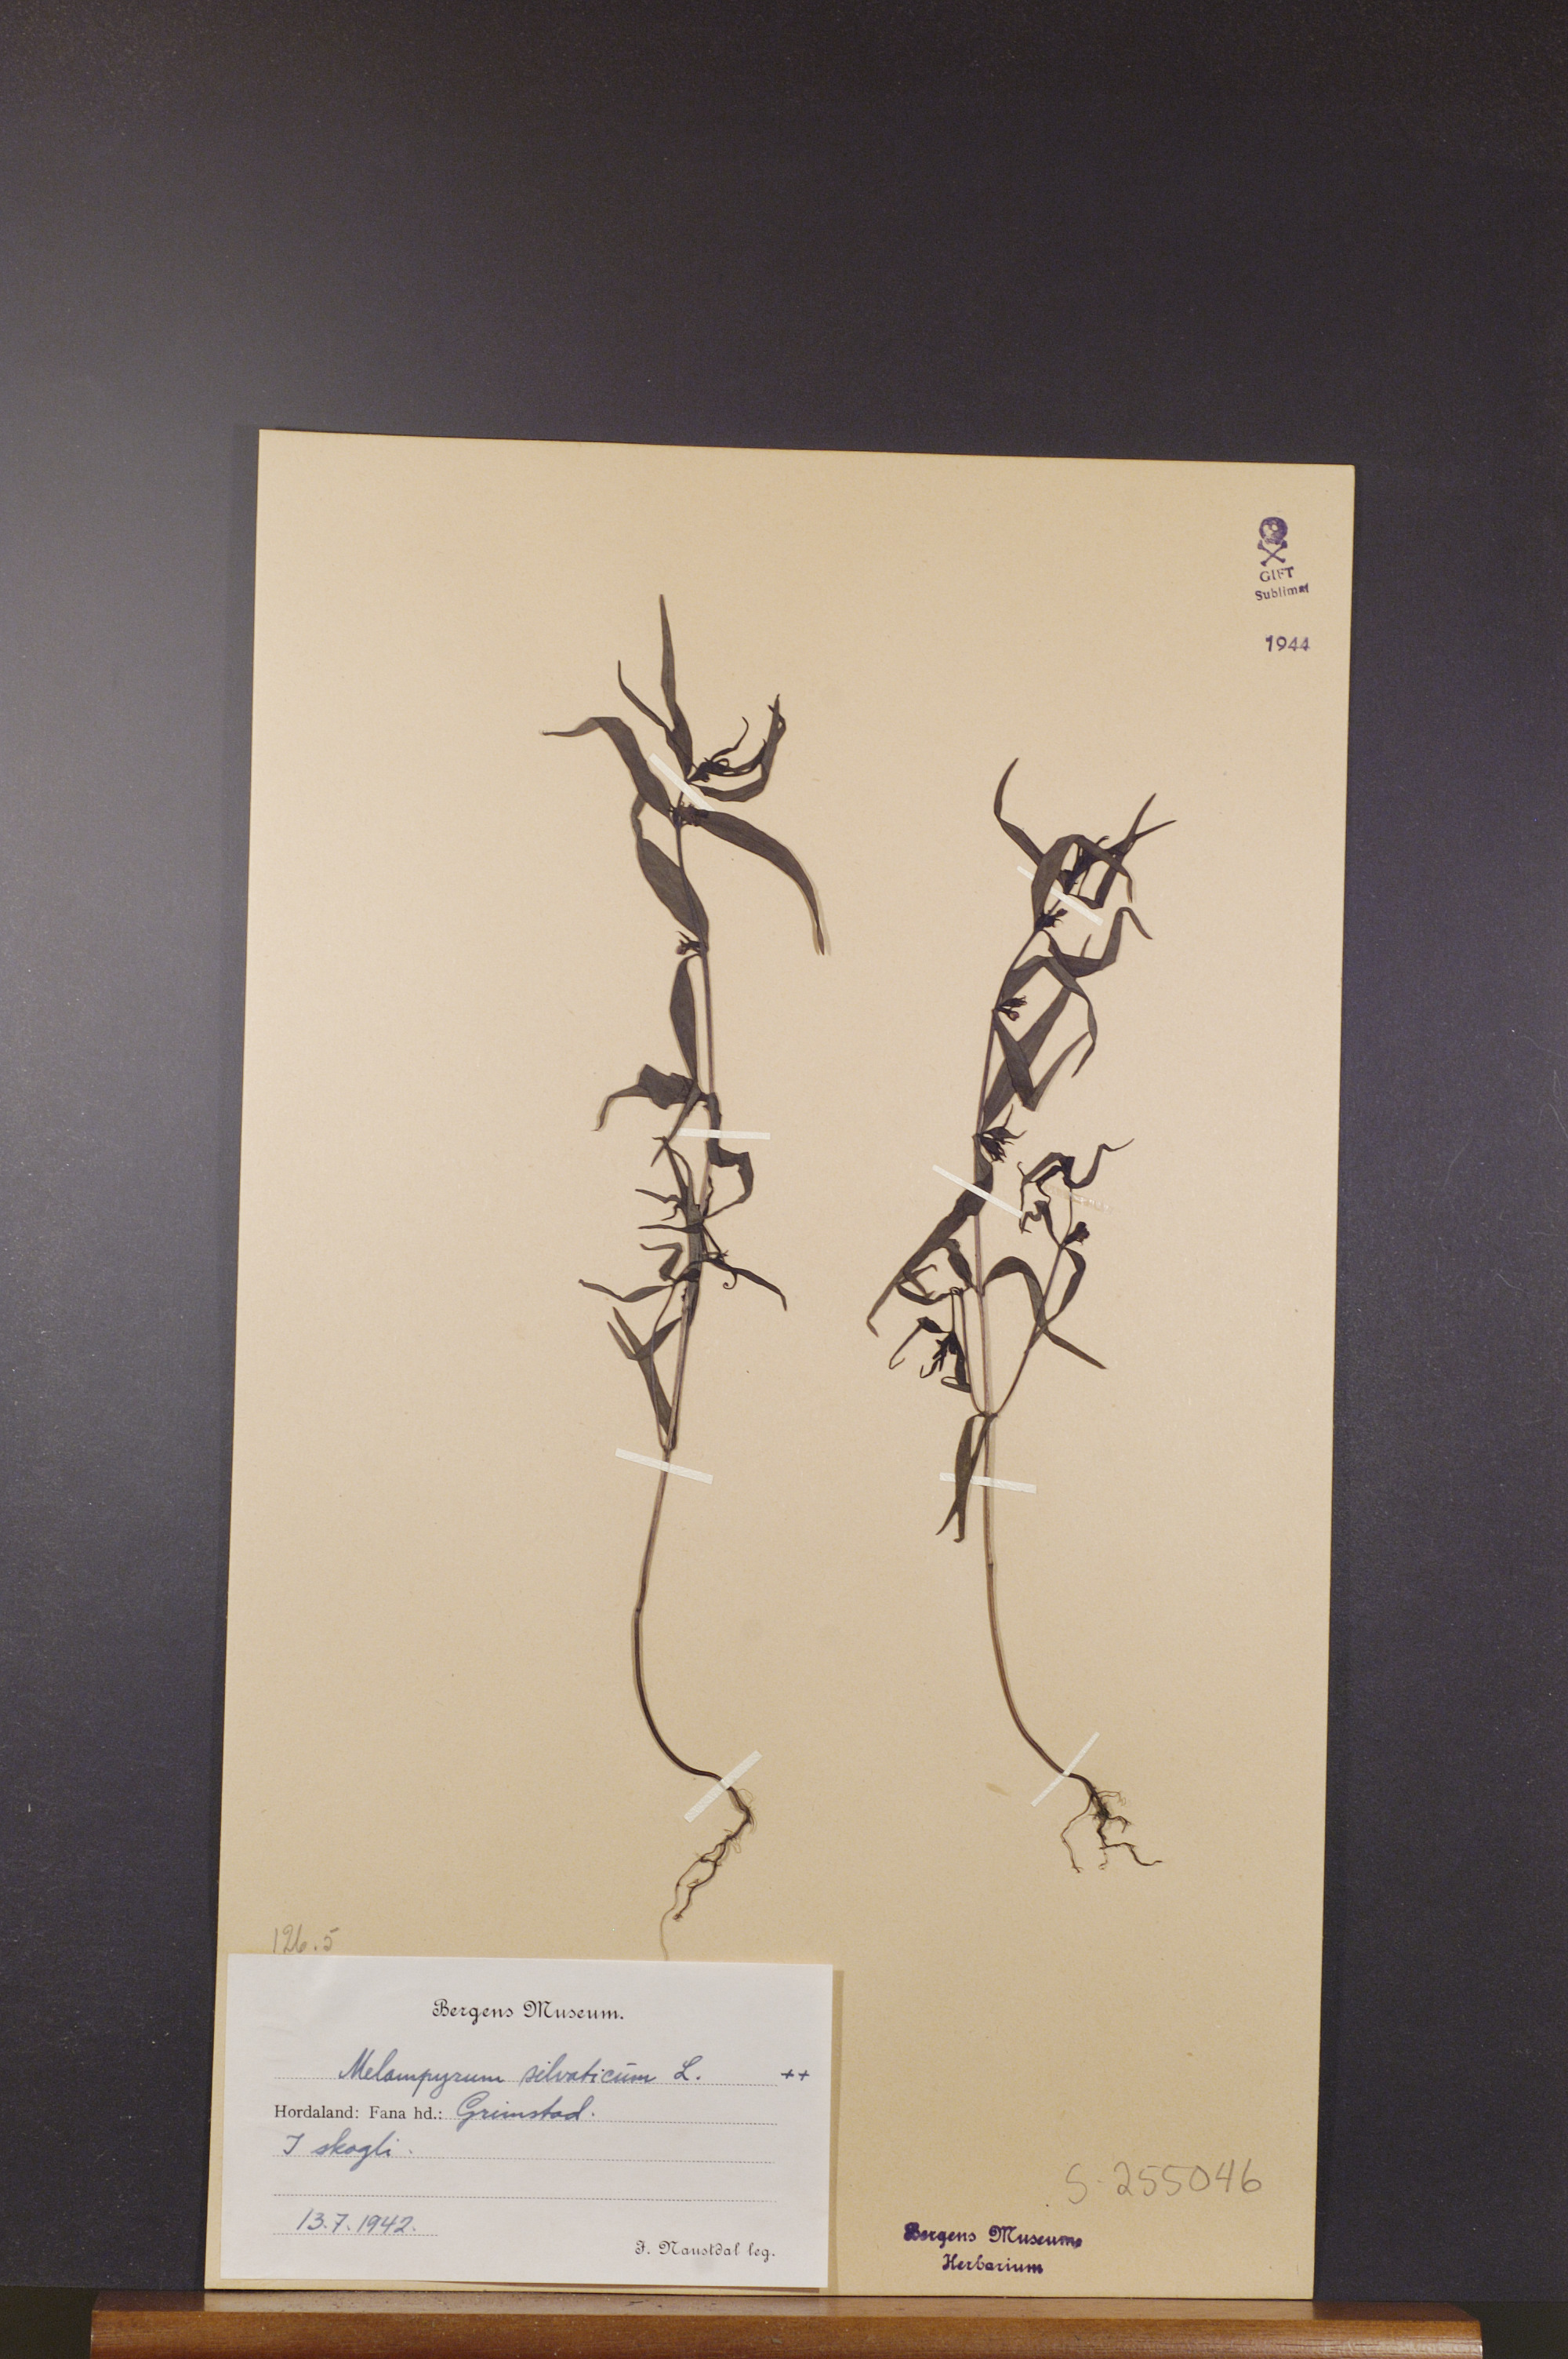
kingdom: Plantae
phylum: Tracheophyta
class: Magnoliopsida
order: Lamiales
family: Orobanchaceae
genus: Melampyrum
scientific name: Melampyrum sylvaticum
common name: Small cow-wheat
